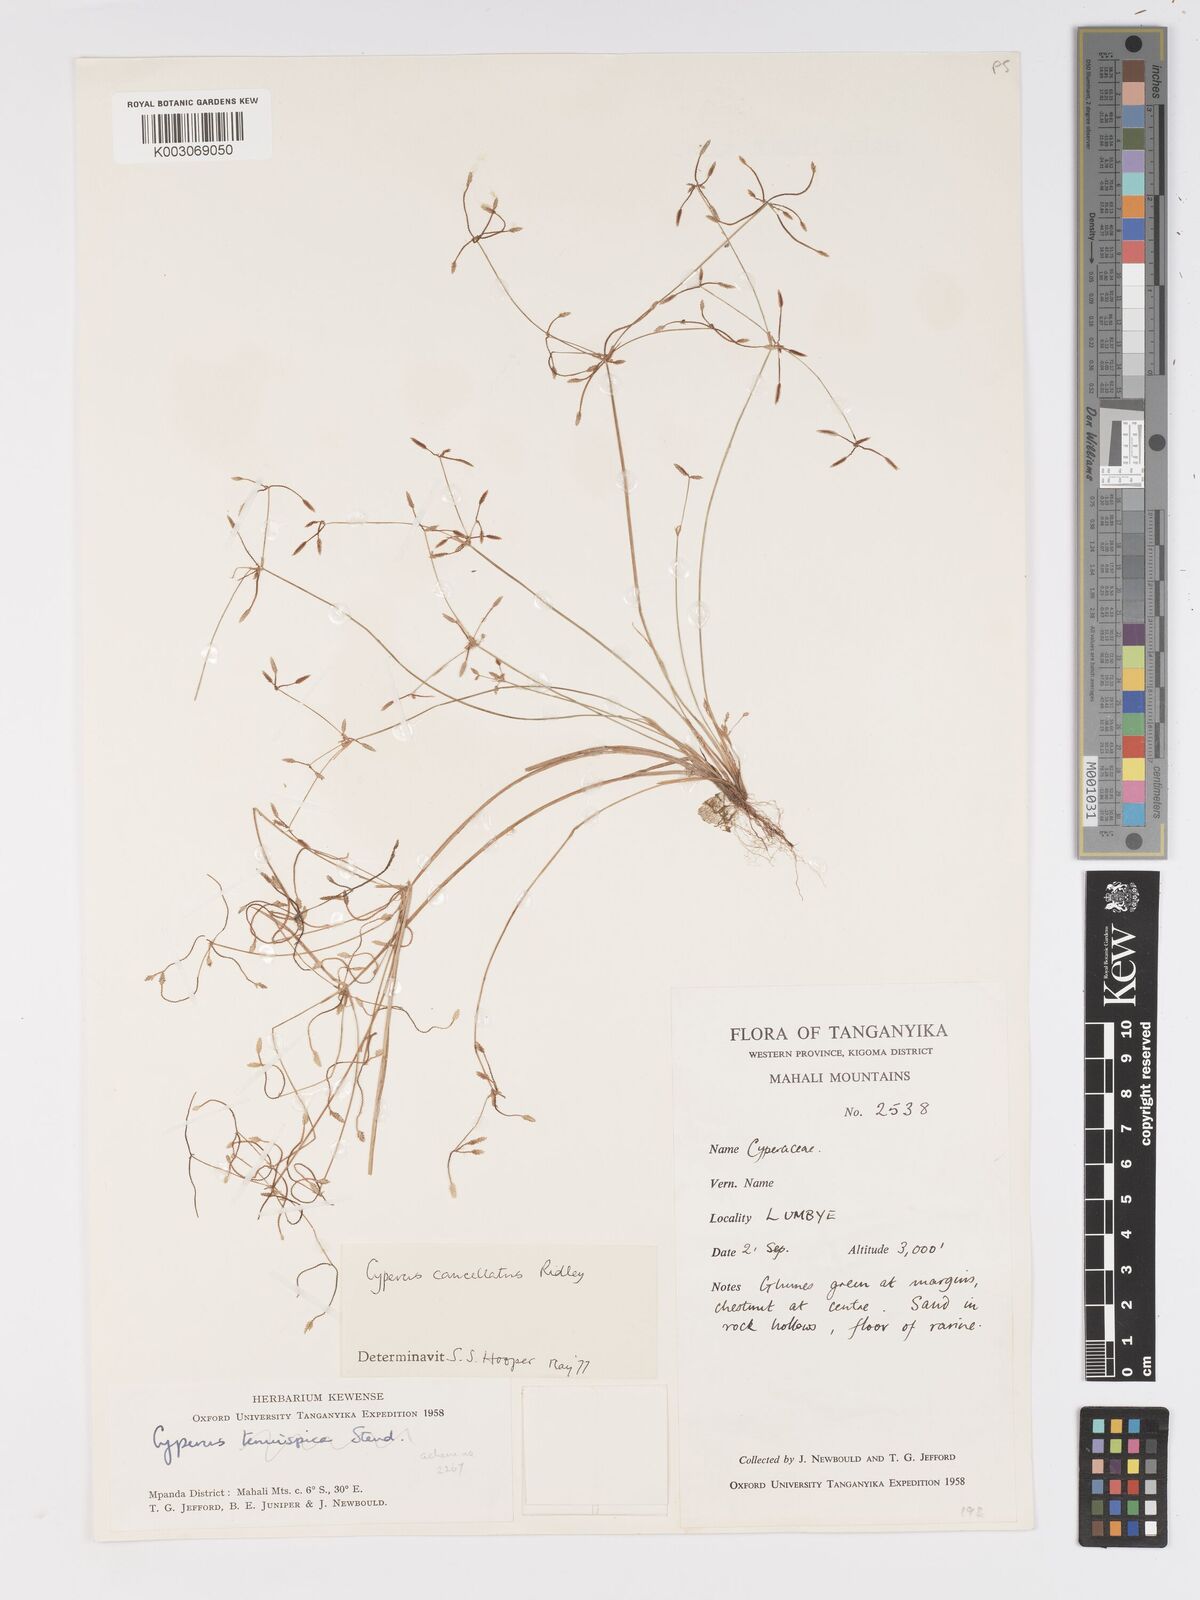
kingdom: Plantae
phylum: Tracheophyta
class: Liliopsida
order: Poales
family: Cyperaceae
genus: Cyperus
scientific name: Cyperus cancellatus
